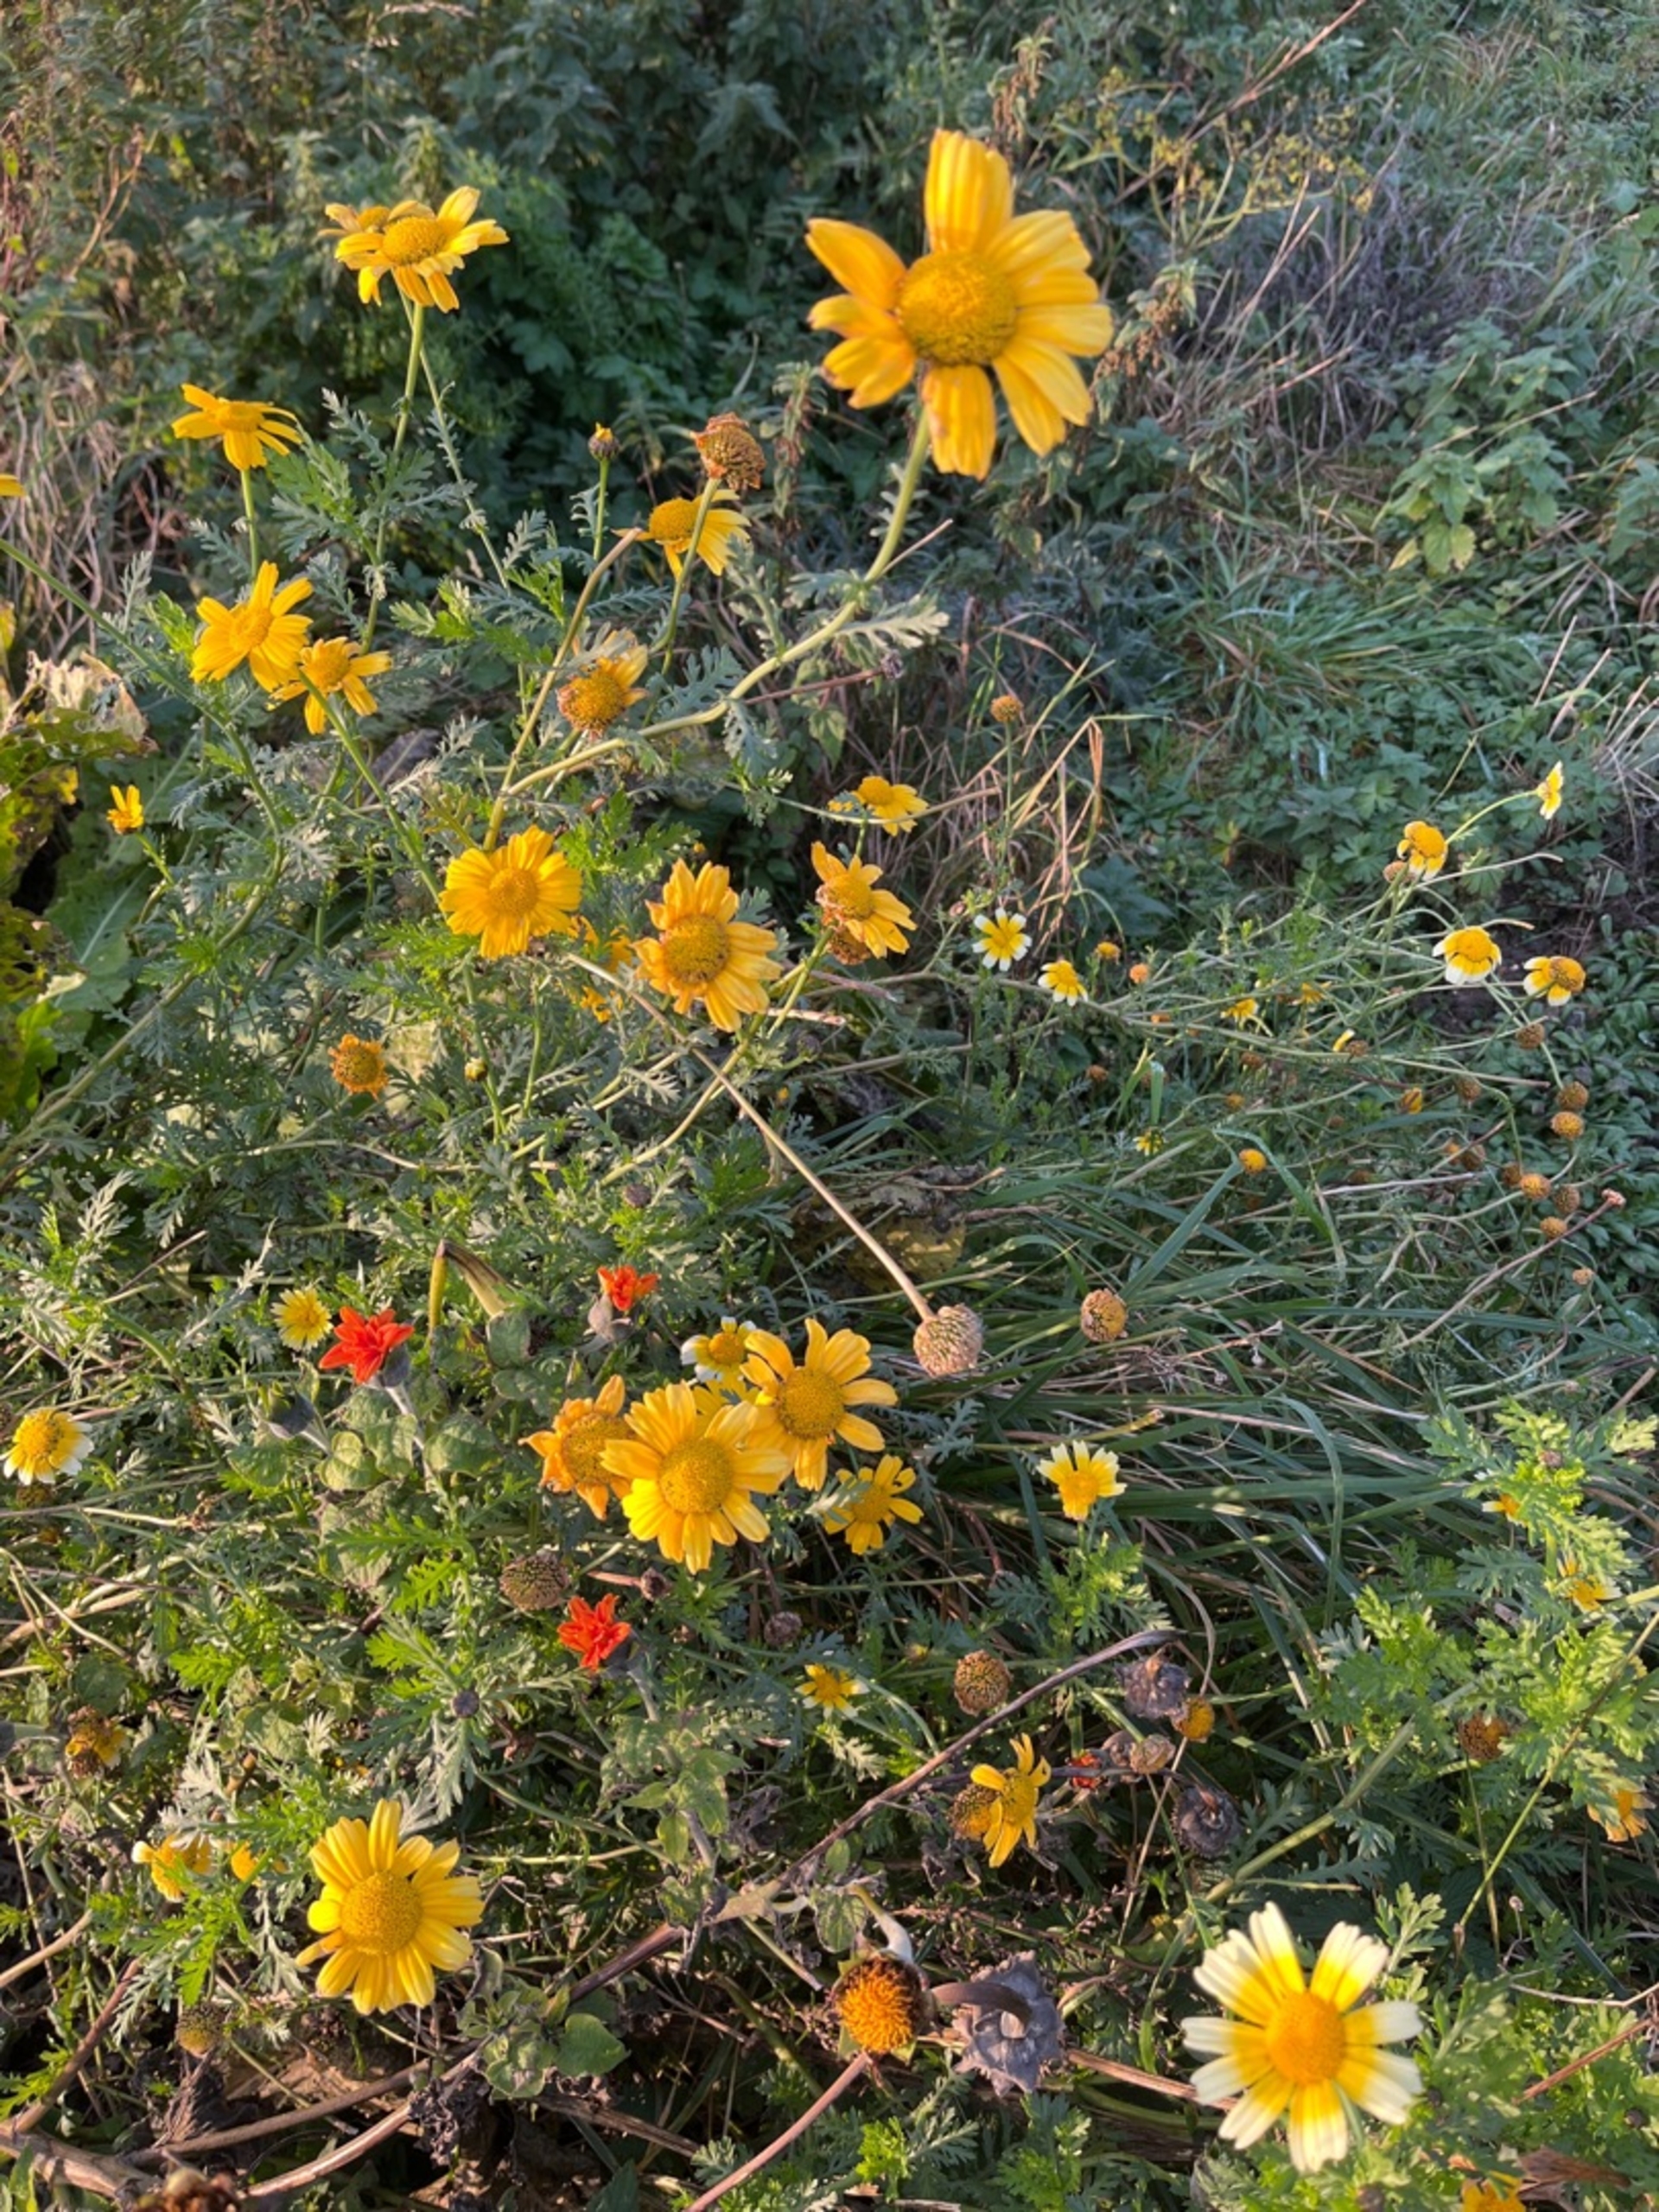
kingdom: Plantae
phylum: Tracheophyta
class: Magnoliopsida
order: Asterales
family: Asteraceae
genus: Glebionis
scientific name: Glebionis carinata
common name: Flerfarvet okseøje
